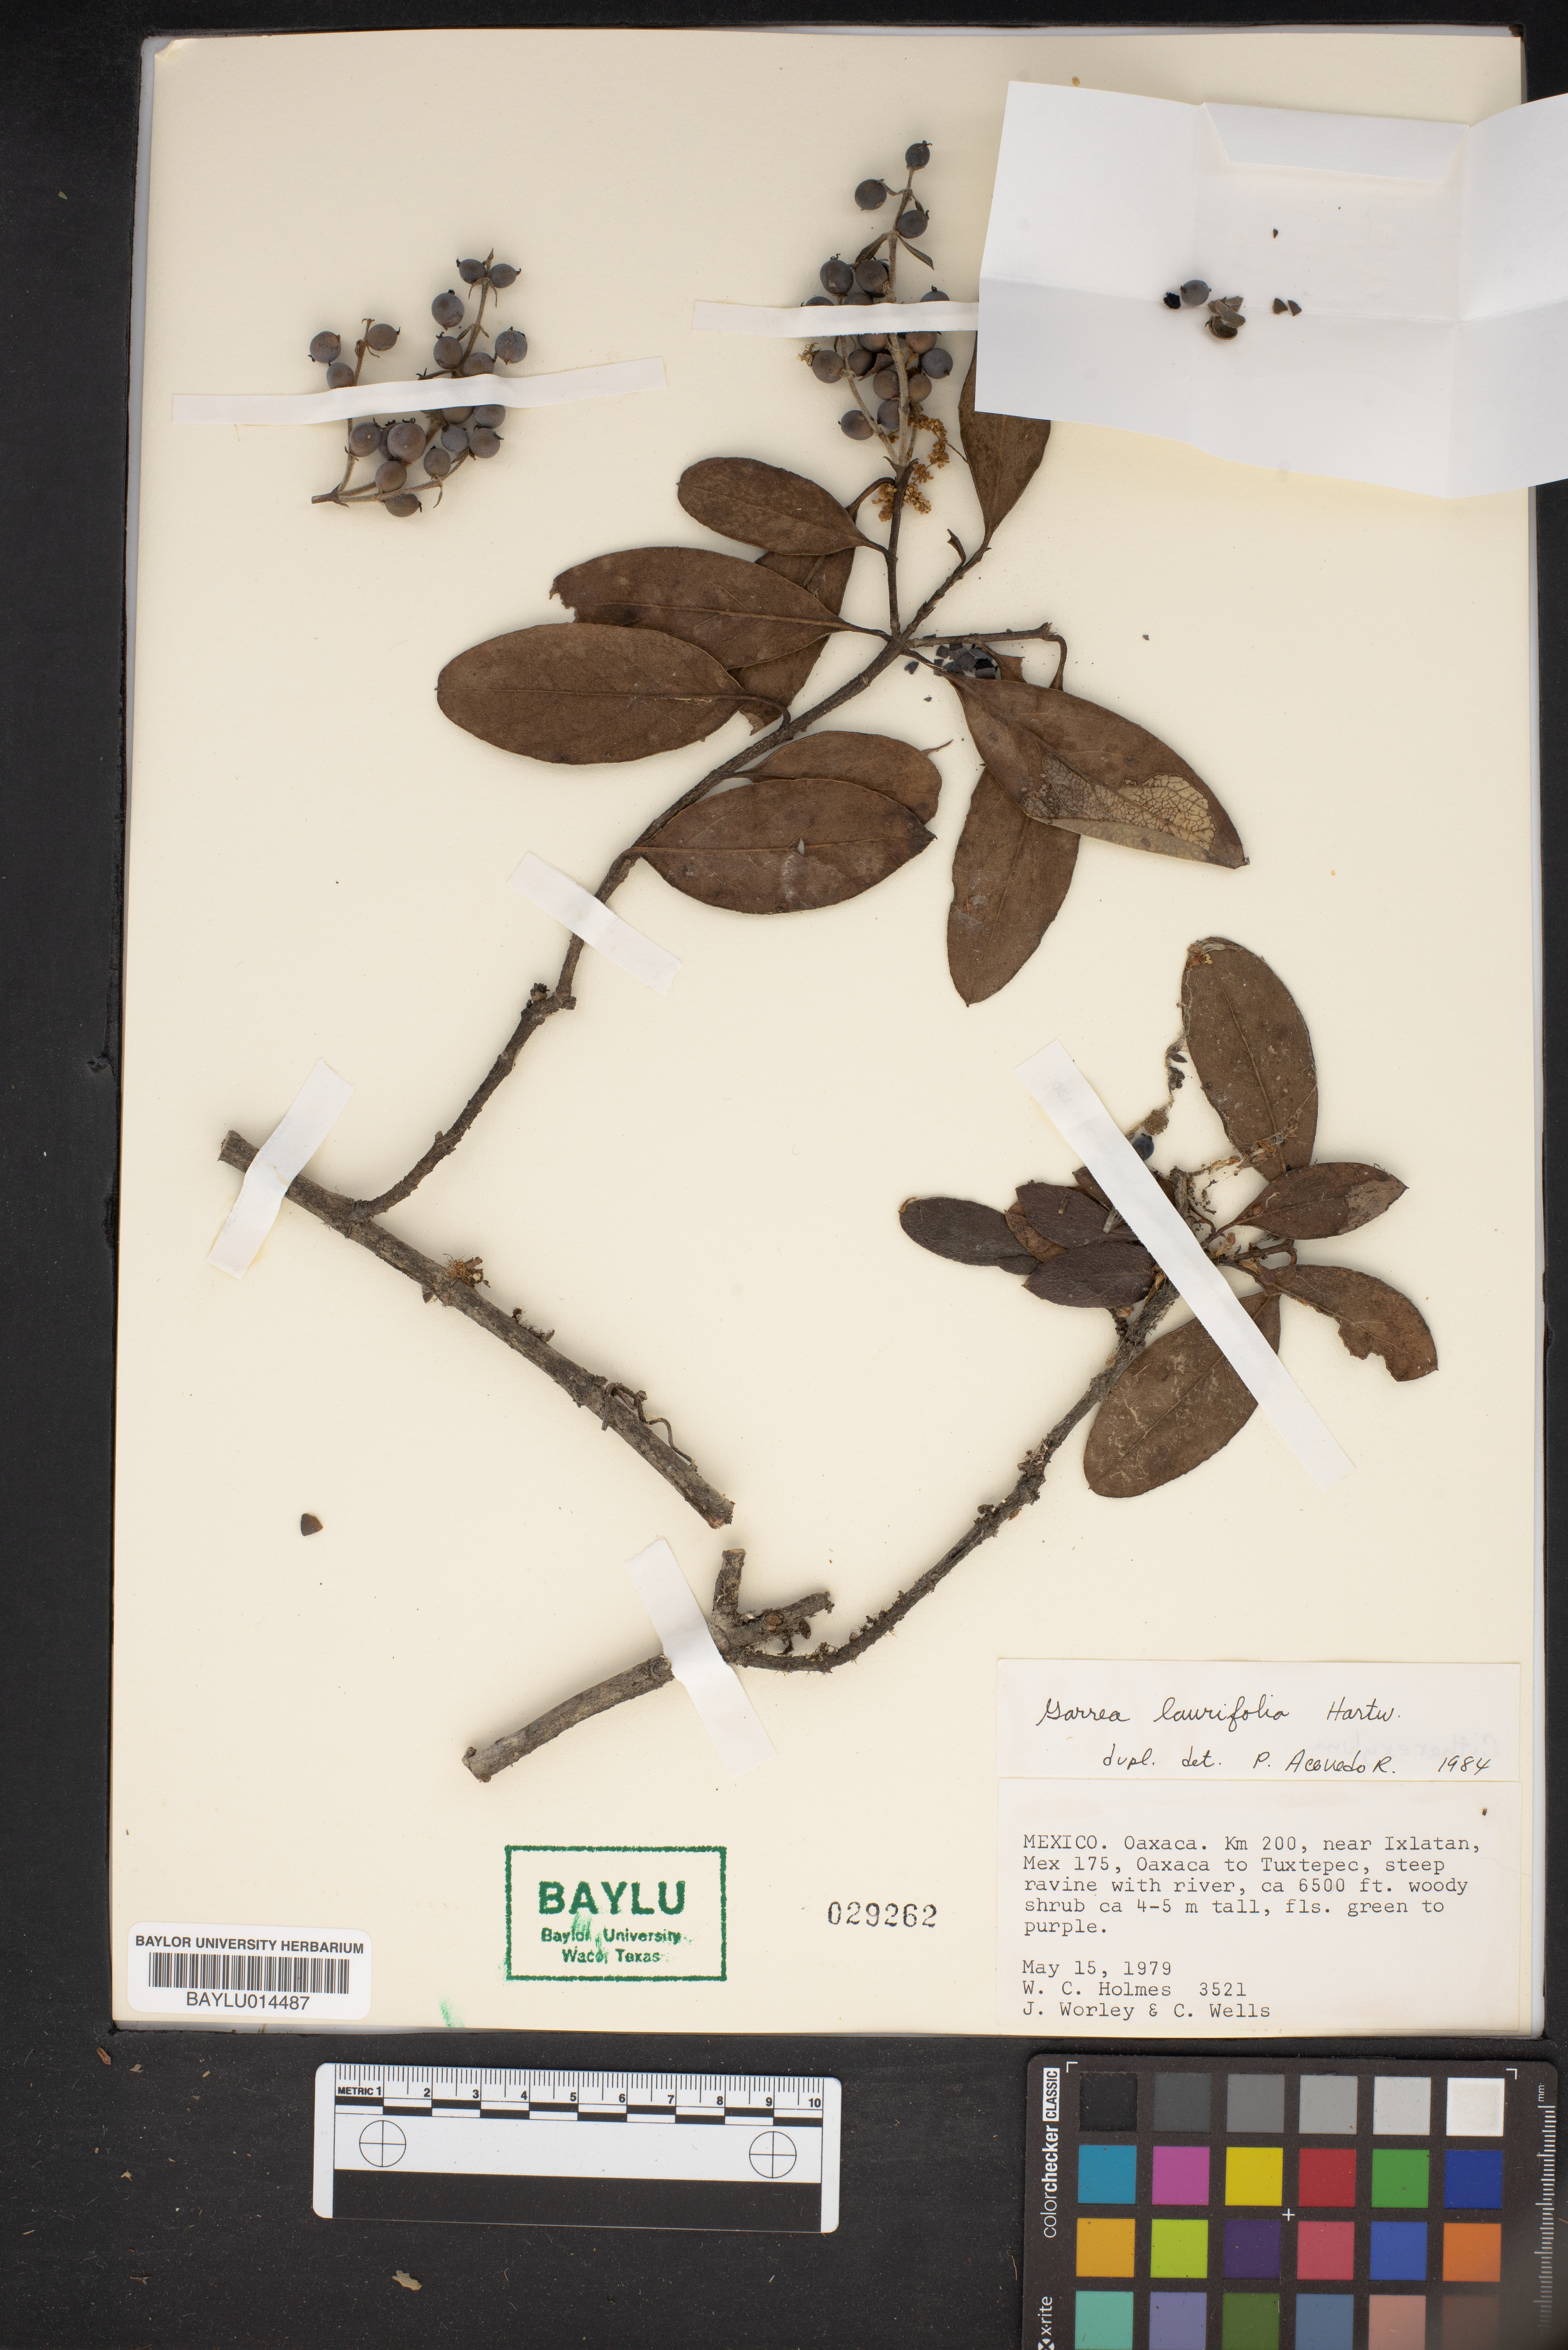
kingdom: Plantae
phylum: Tracheophyta
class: Magnoliopsida
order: Garryales
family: Garryaceae
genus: Garrya
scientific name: Garrya laurifolia
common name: Cuachichic
